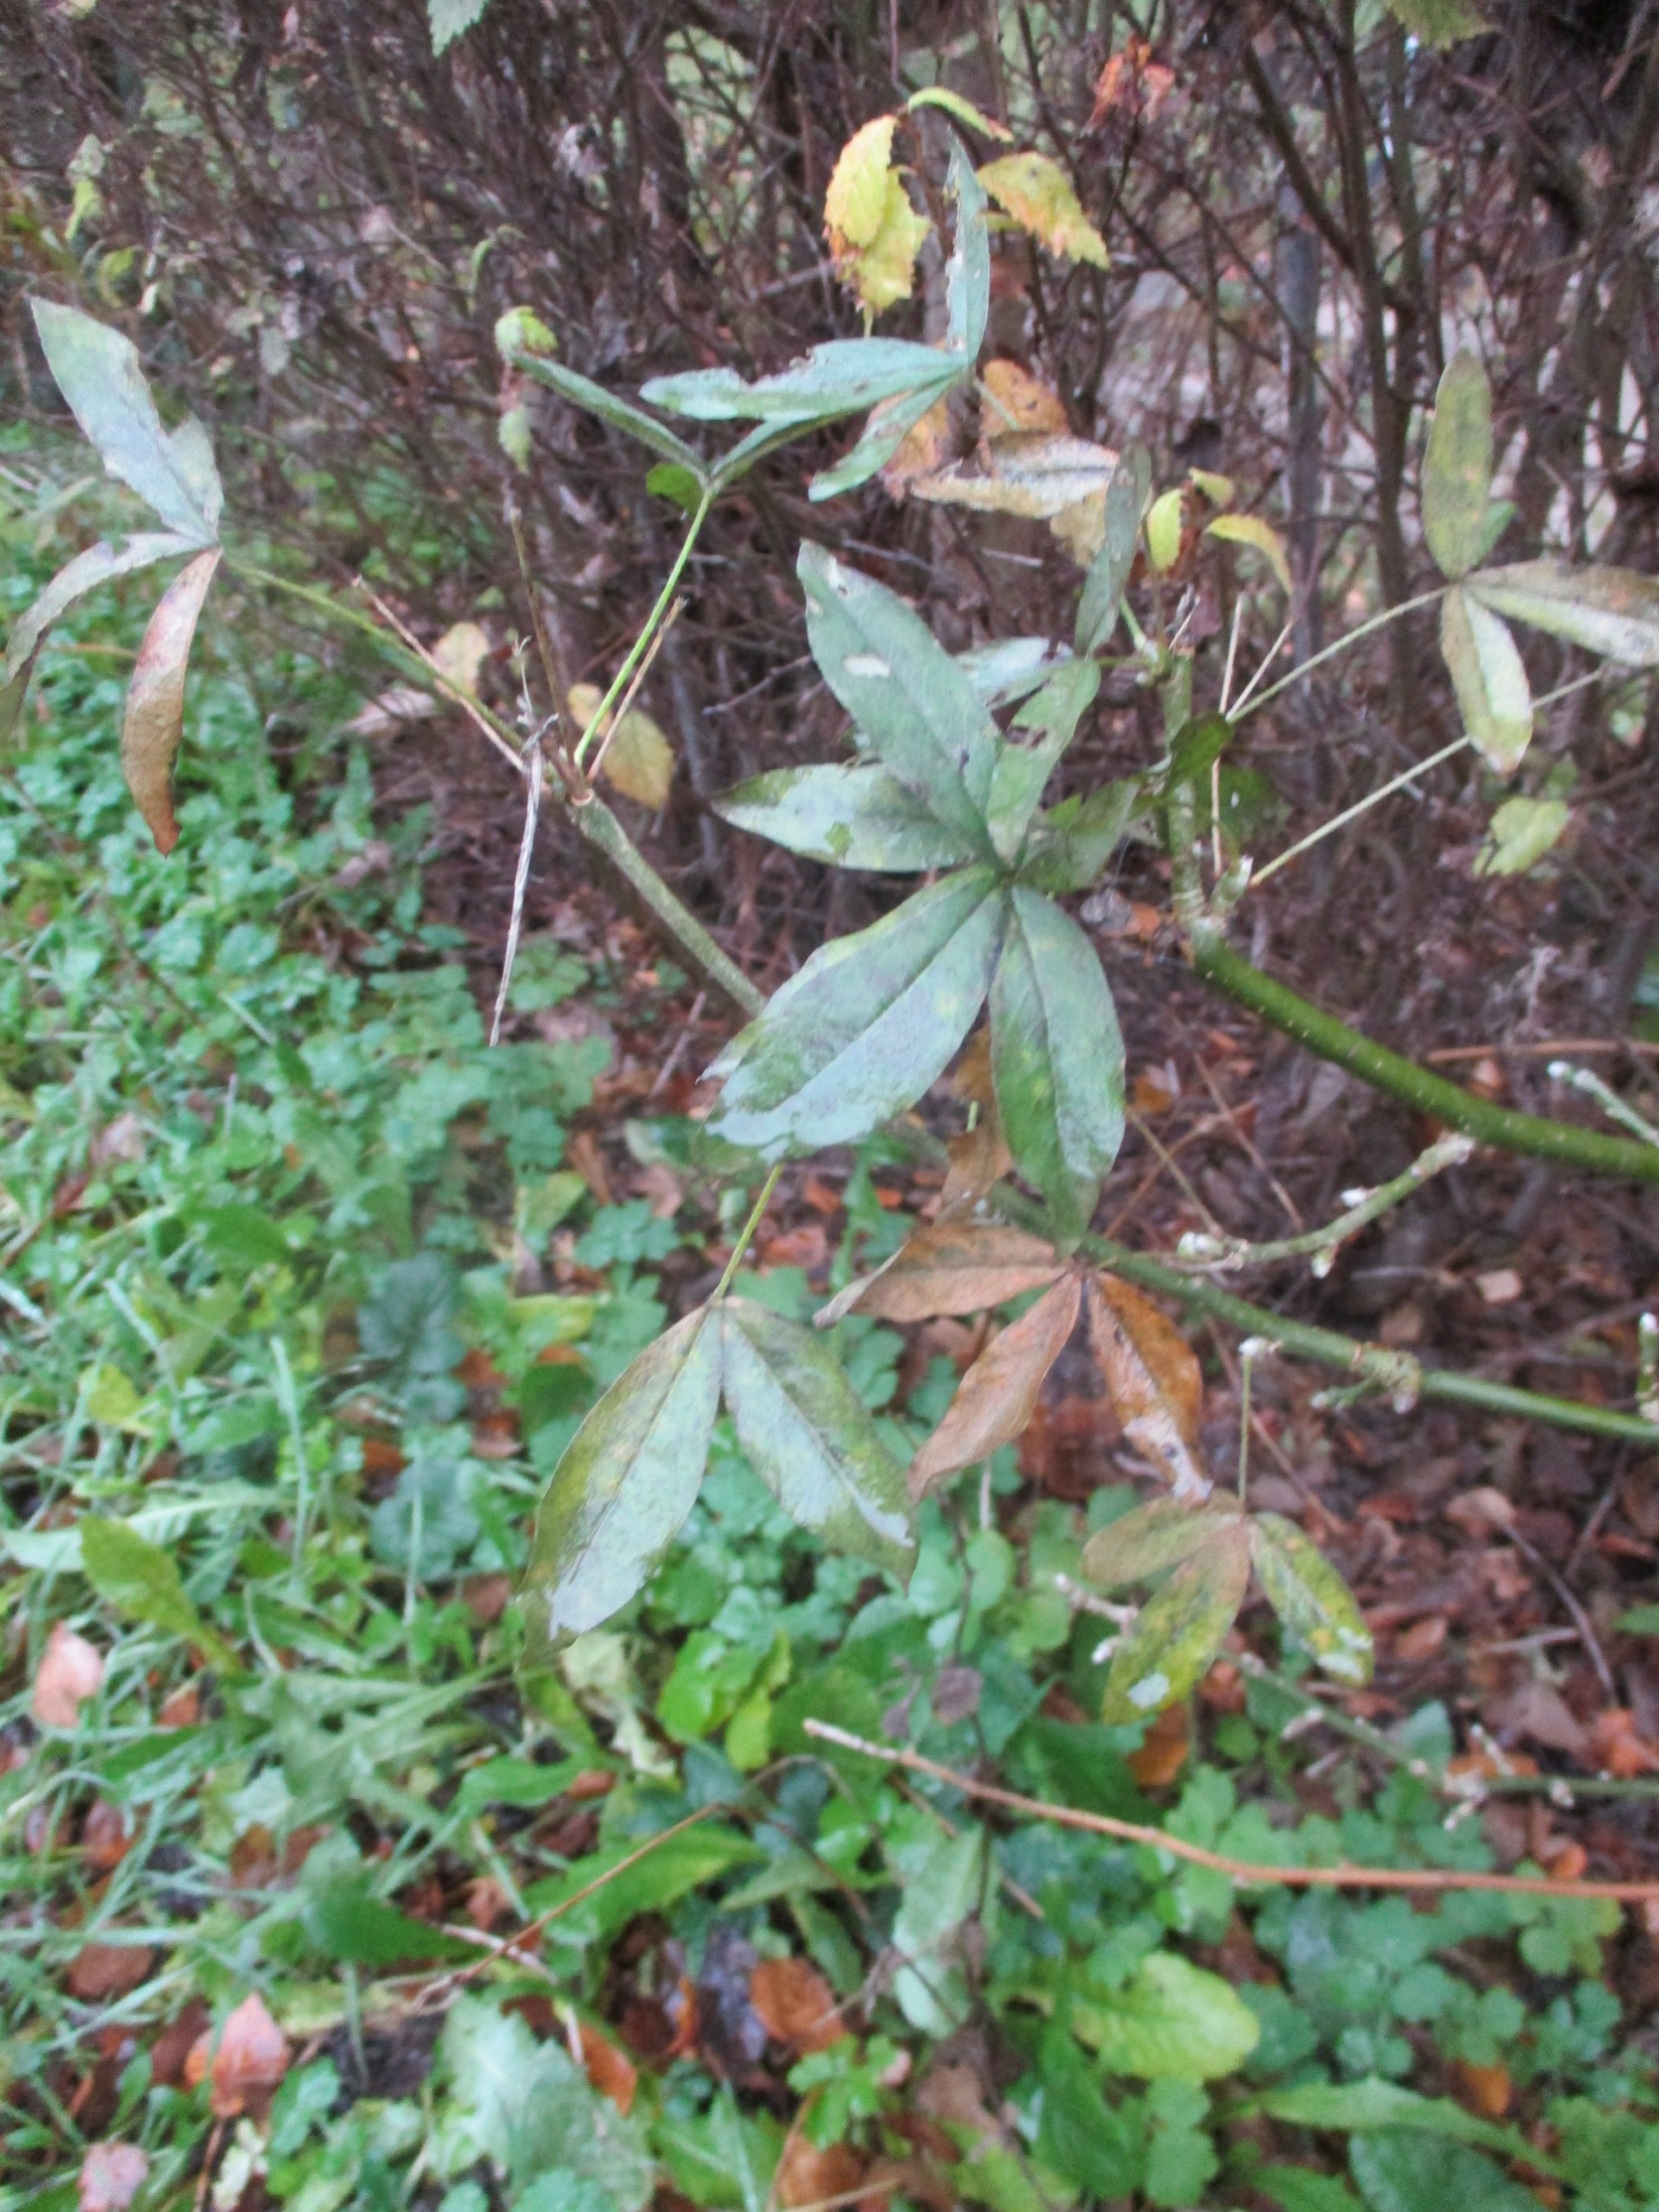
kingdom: Plantae
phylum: Tracheophyta
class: Magnoliopsida
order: Fabales
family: Fabaceae
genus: Laburnum
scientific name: Laburnum anagyroides
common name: Guldregn
